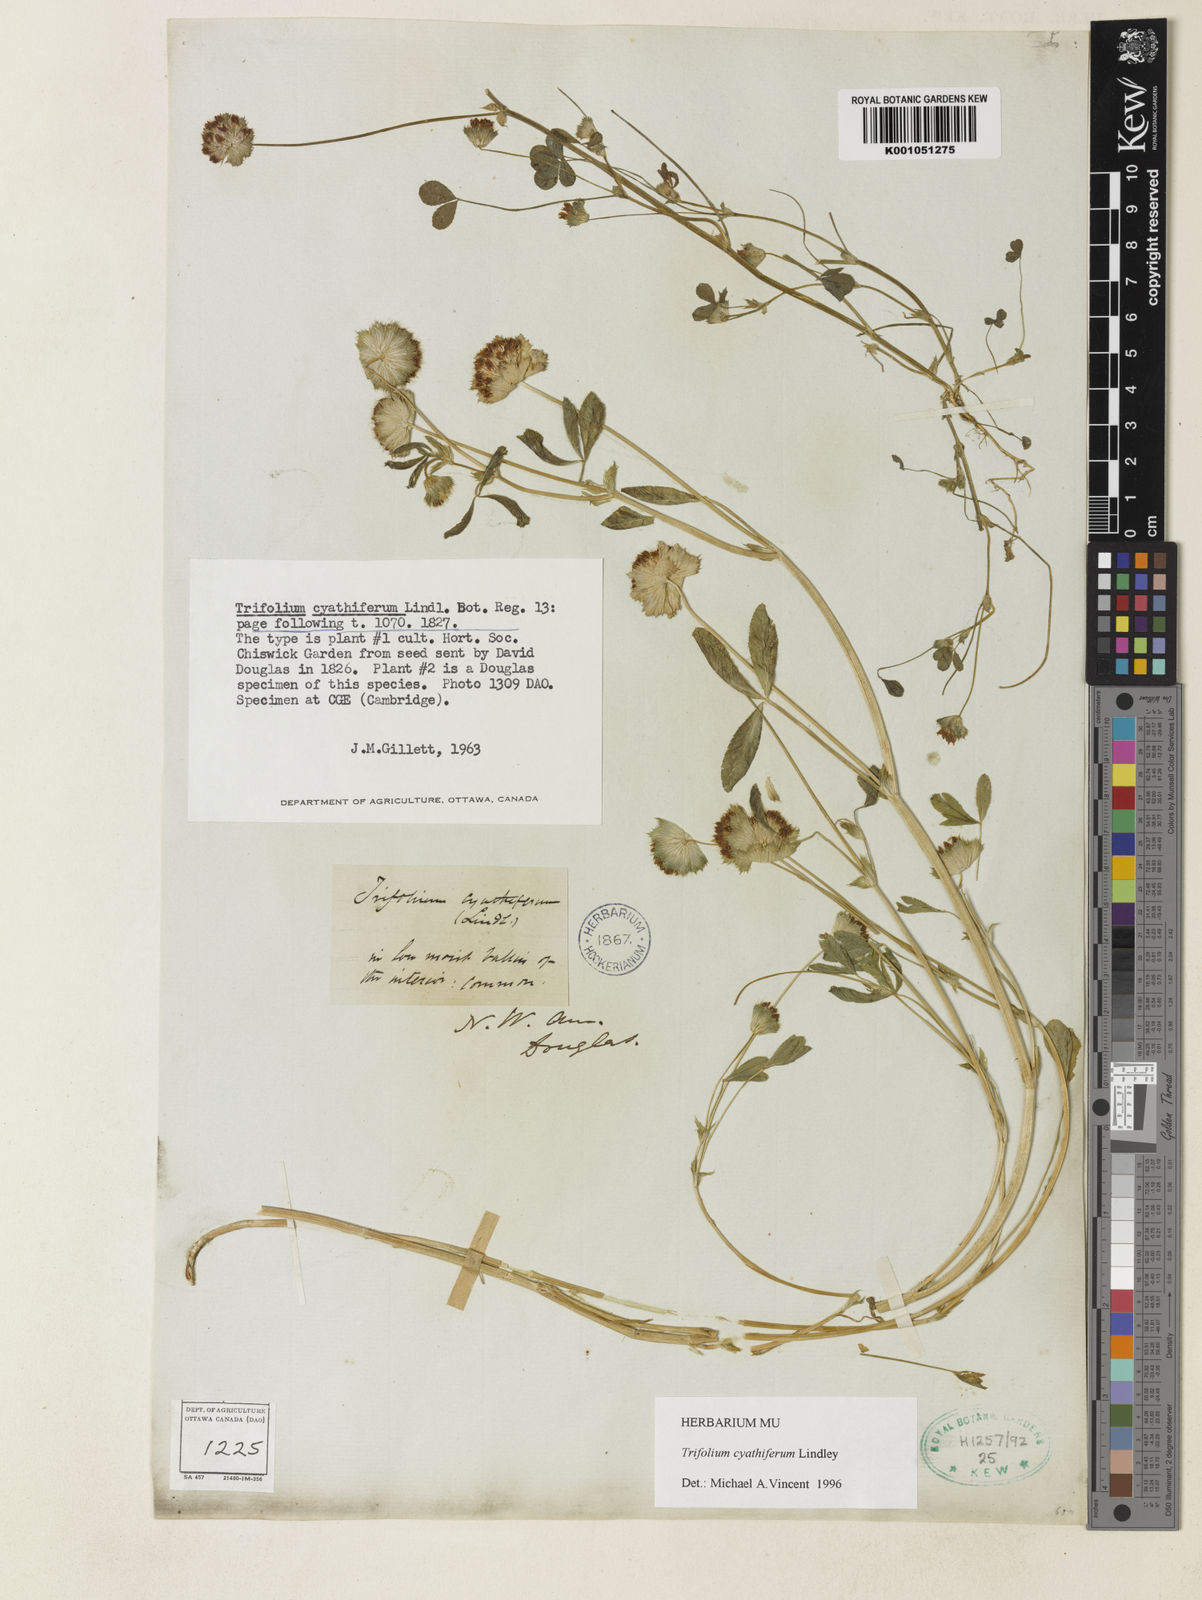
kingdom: Plantae
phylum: Tracheophyta
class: Magnoliopsida
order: Fabales
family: Fabaceae
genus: Trifolium
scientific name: Trifolium cyathiferum
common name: Bowl clover
